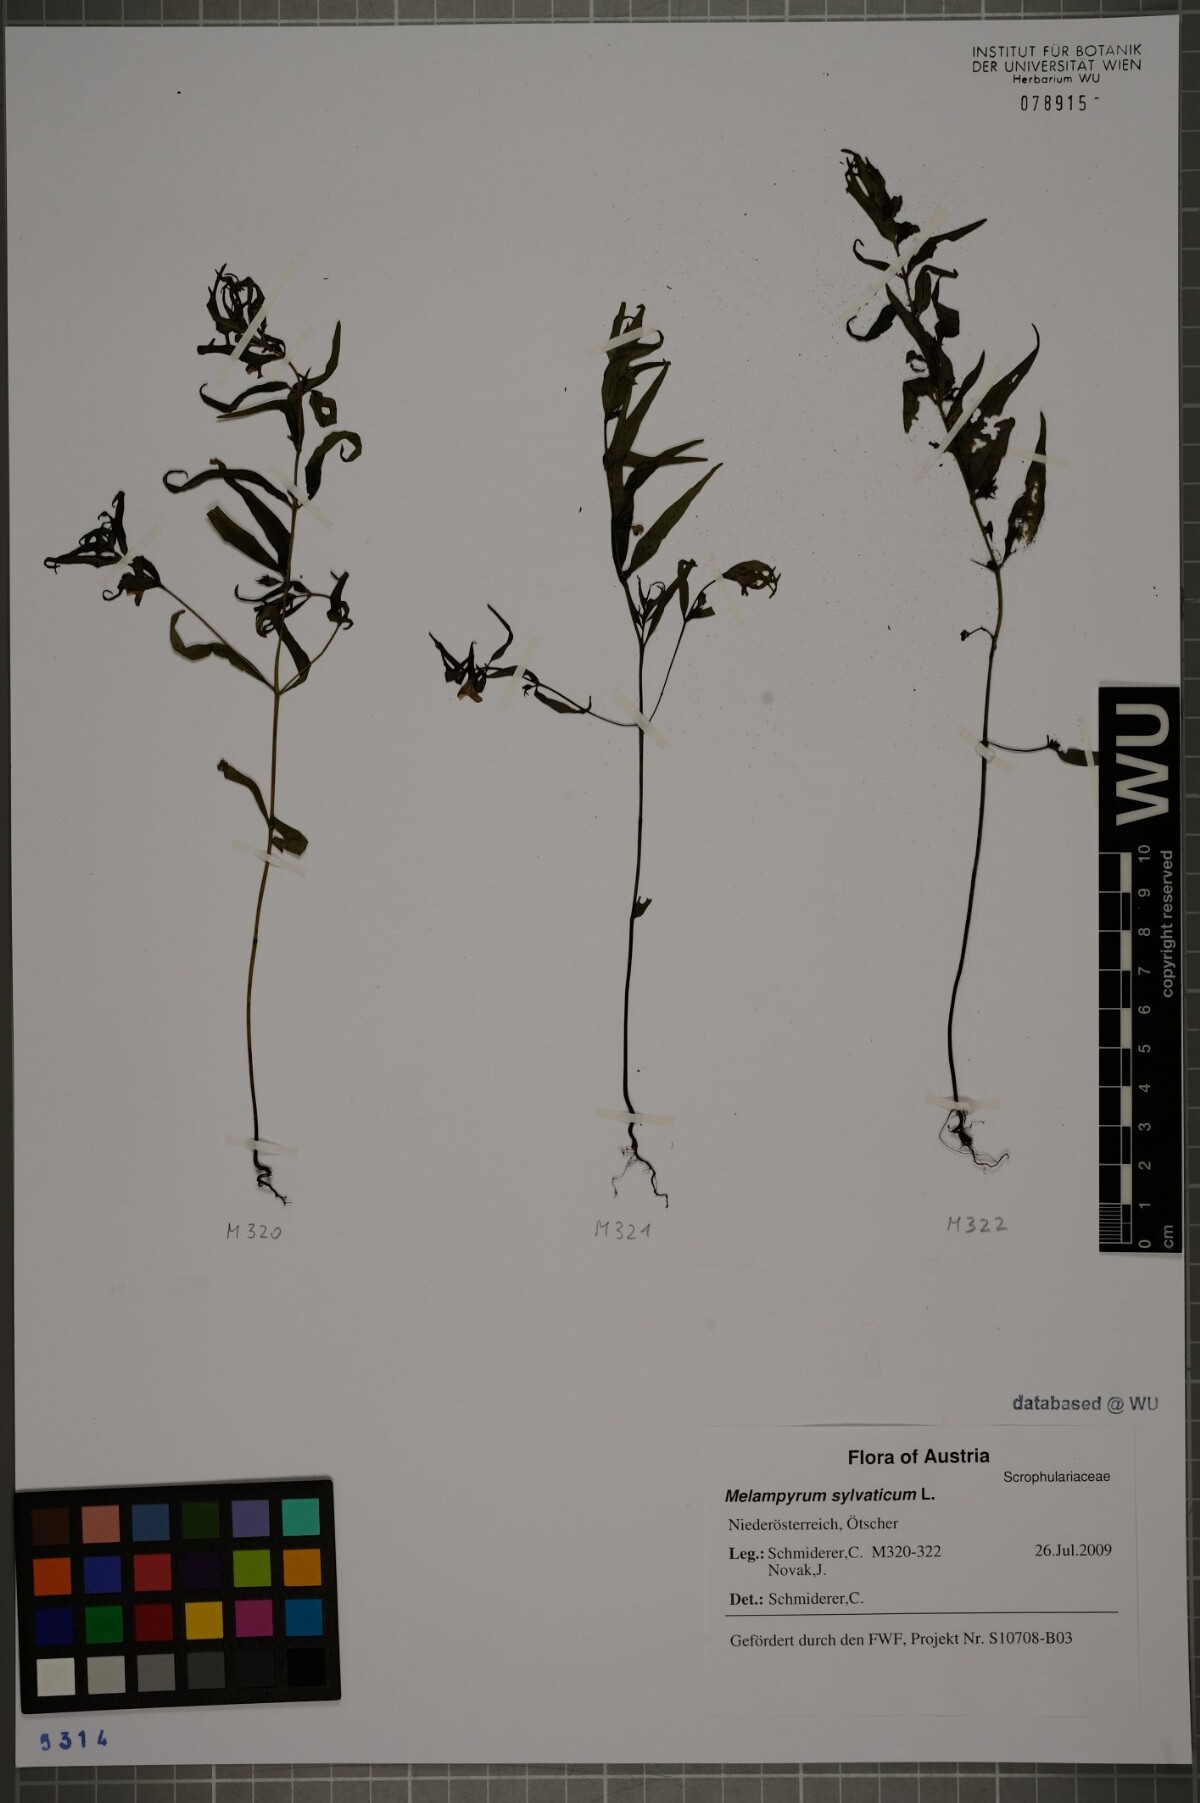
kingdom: Plantae
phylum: Tracheophyta
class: Magnoliopsida
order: Lamiales
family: Orobanchaceae
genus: Melampyrum
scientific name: Melampyrum sylvaticum
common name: Small cow-wheat
